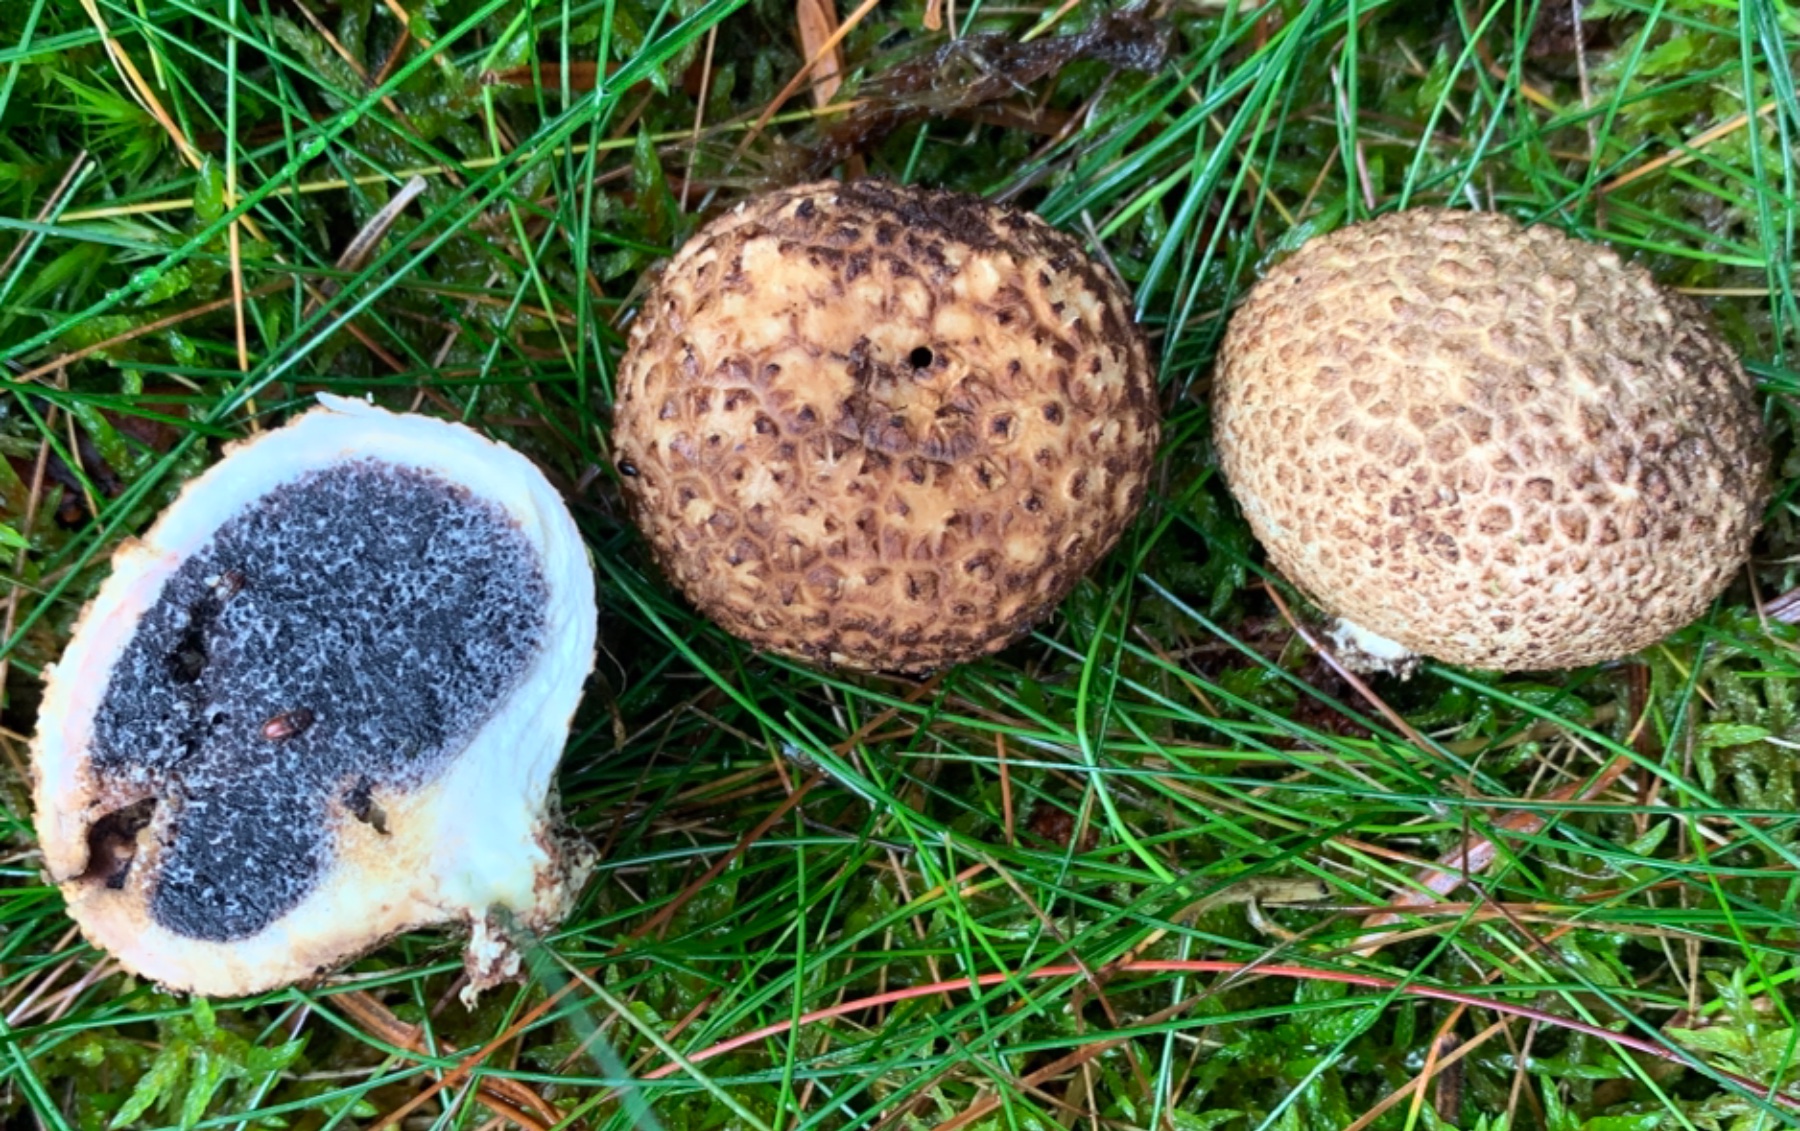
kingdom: Fungi
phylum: Basidiomycota
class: Agaricomycetes
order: Boletales
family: Sclerodermataceae
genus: Scleroderma
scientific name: Scleroderma citrinum
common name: almindelig bruskbold
